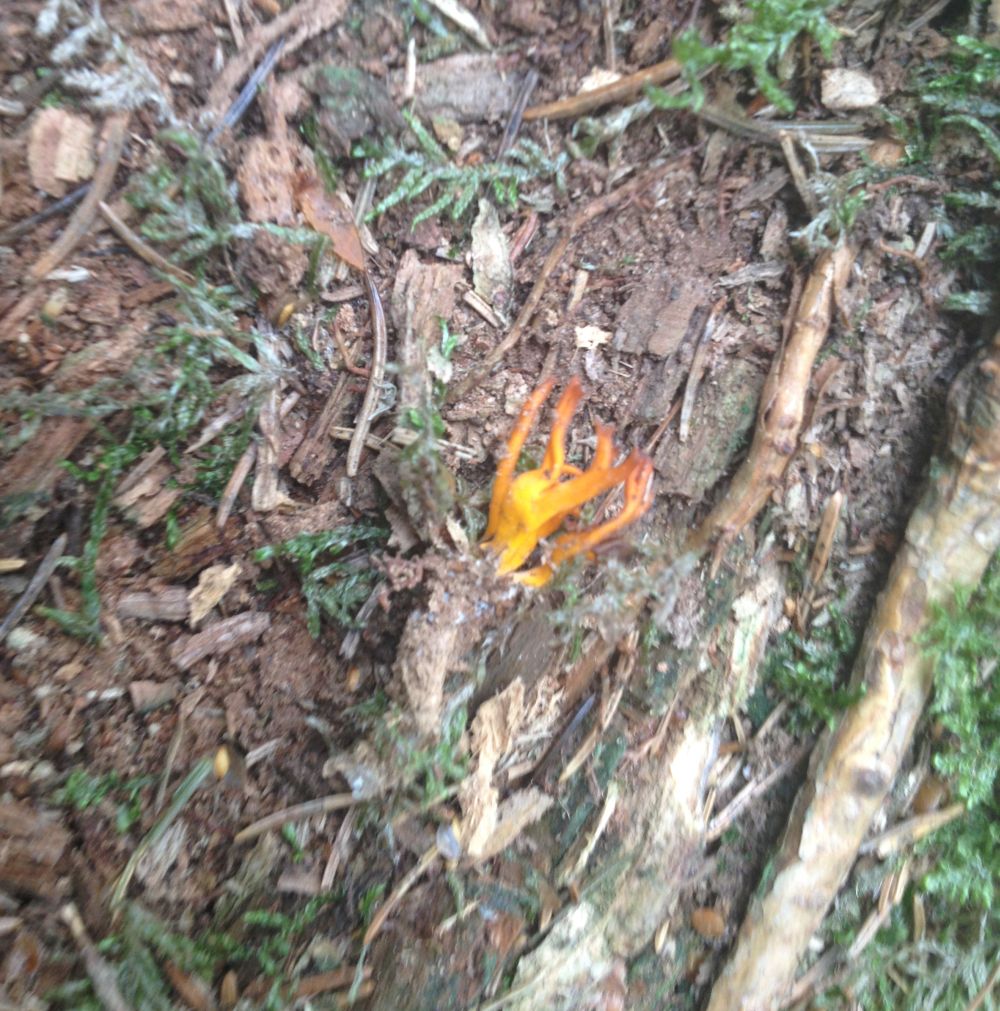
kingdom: Fungi
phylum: Basidiomycota
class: Dacrymycetes
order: Dacrymycetales
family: Dacrymycetaceae
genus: Calocera
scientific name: Calocera viscosa
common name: almindelig guldgaffel
